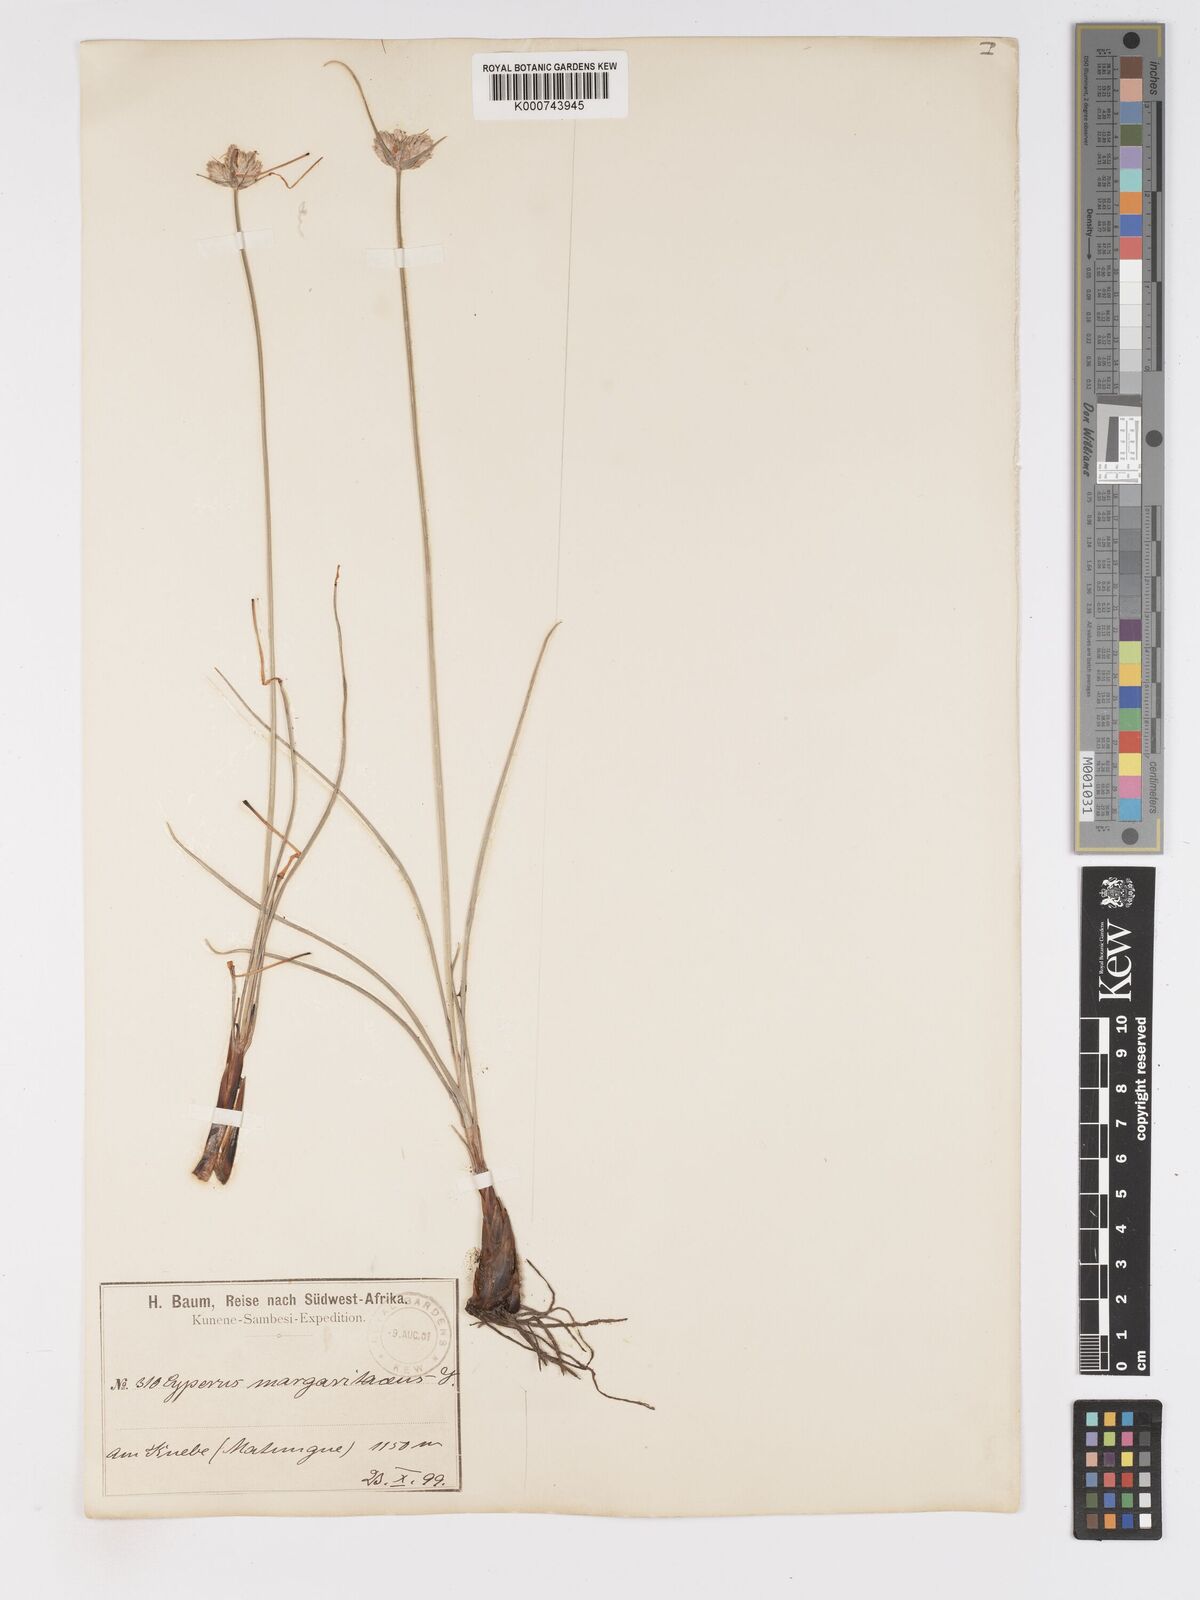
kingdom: Plantae
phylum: Tracheophyta
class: Liliopsida
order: Poales
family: Cyperaceae
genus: Cyperus
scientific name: Cyperus margaritaceus
